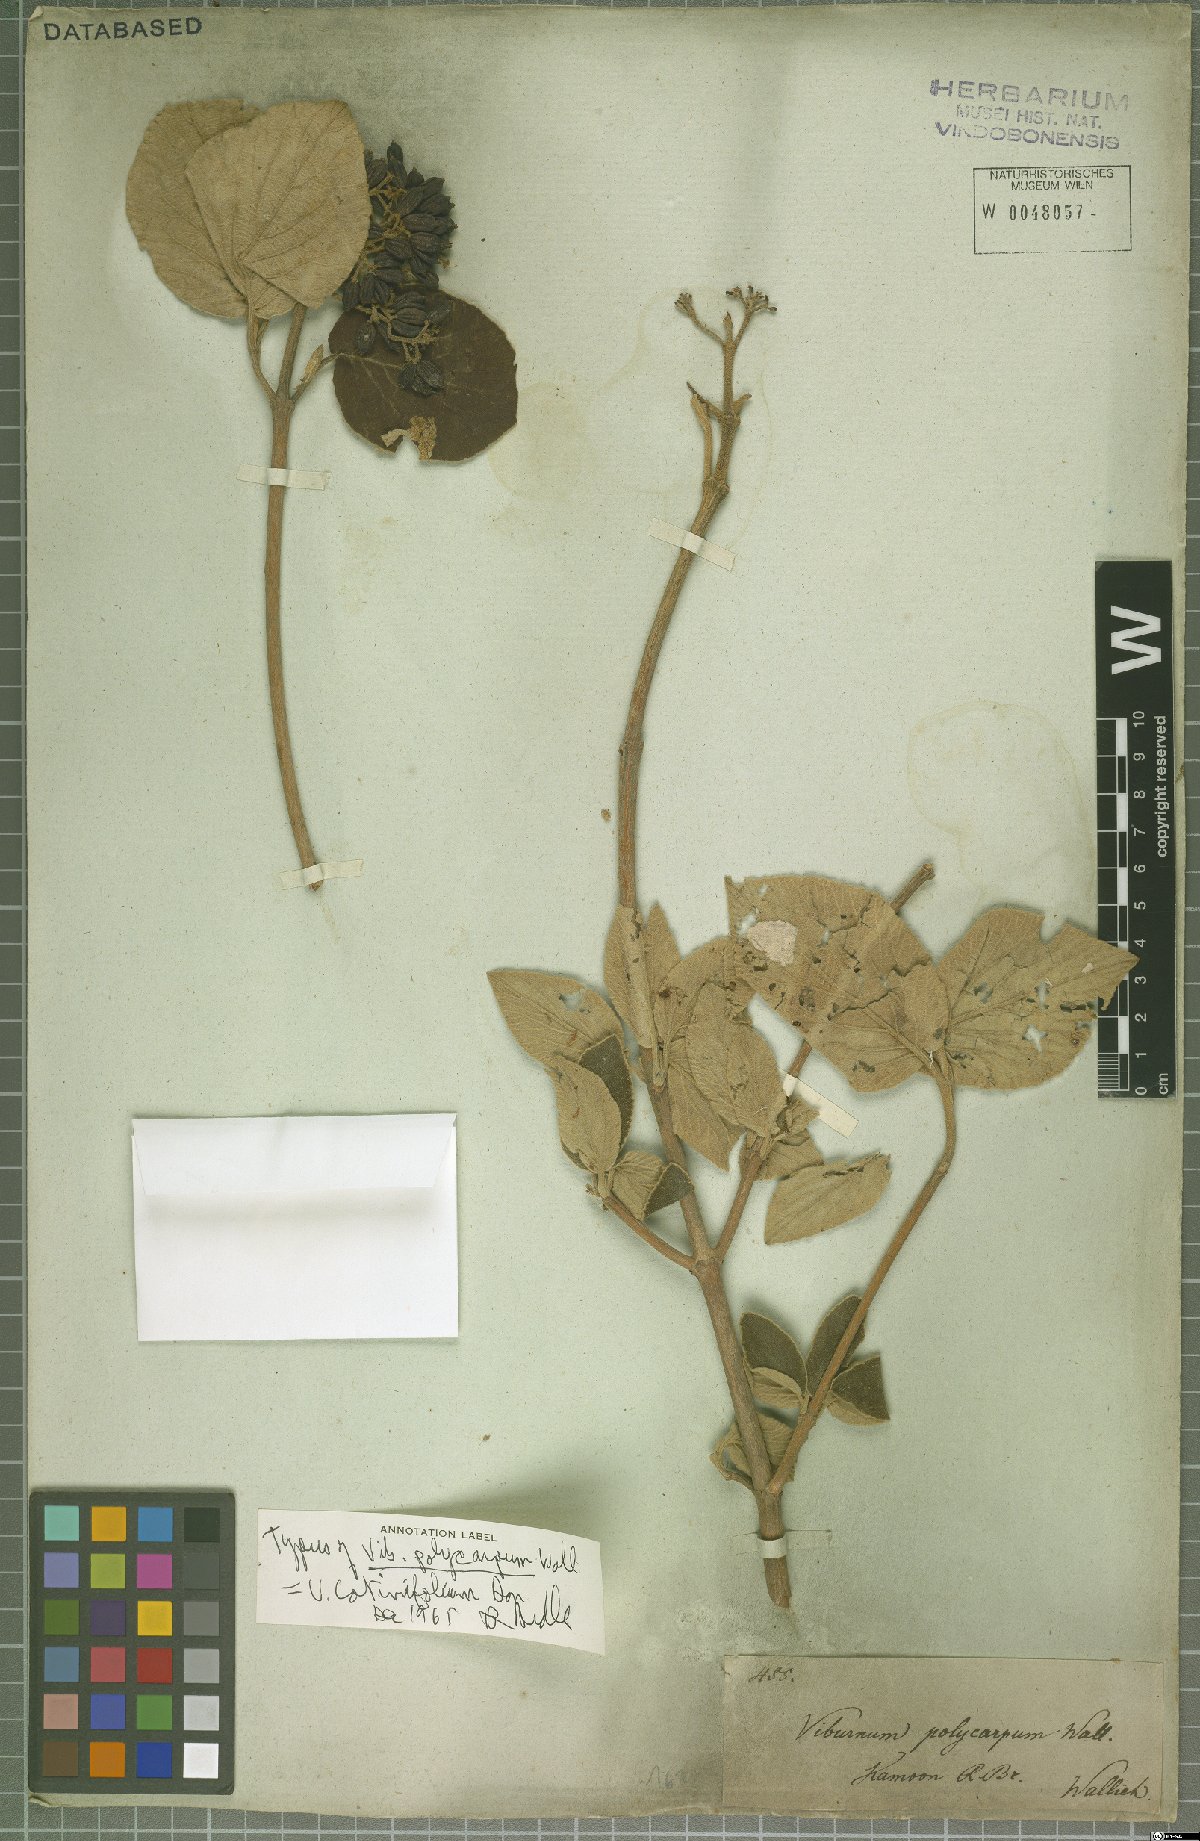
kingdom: Plantae
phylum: Tracheophyta
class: Magnoliopsida
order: Dipsacales
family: Viburnaceae
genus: Viburnum
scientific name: Viburnum cotinifolium
